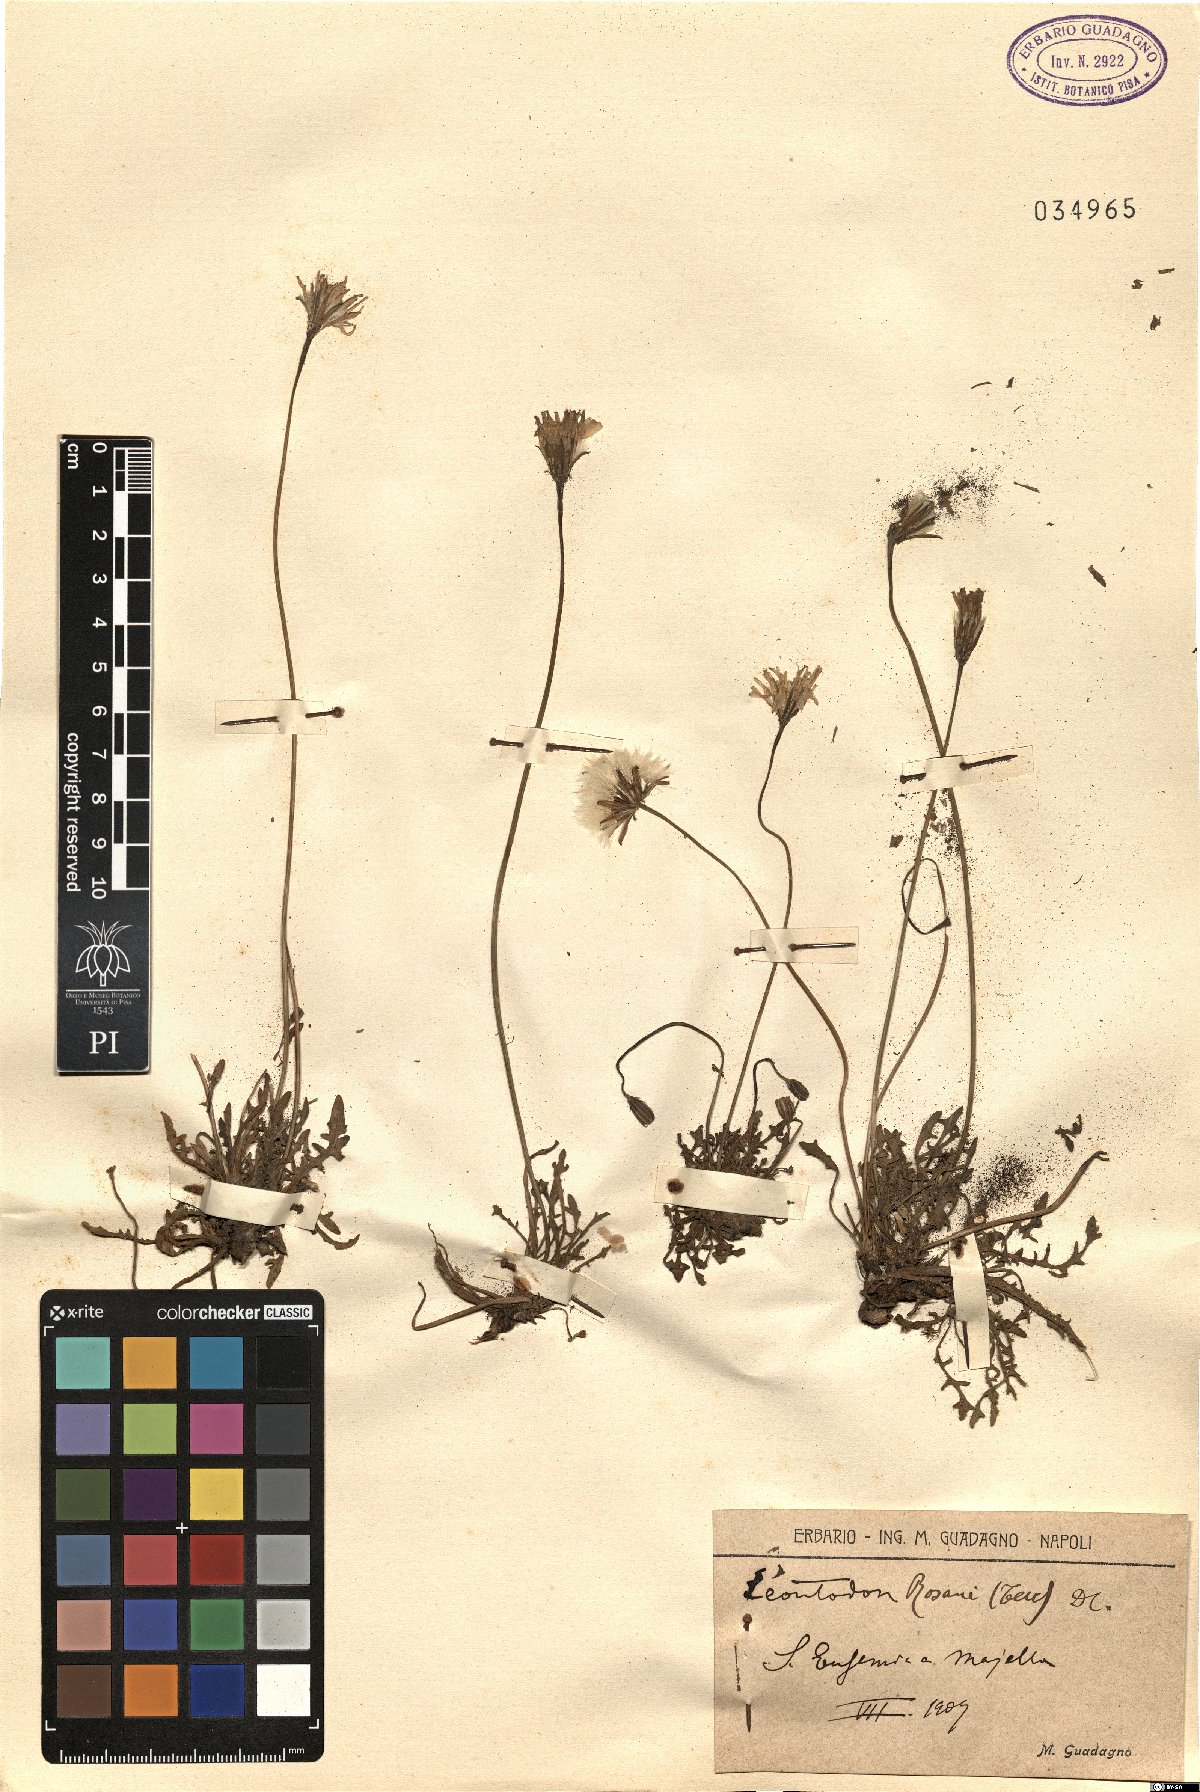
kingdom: Plantae
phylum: Tracheophyta
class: Magnoliopsida
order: Asterales
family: Asteraceae
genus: Leontodon
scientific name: Leontodon rosanoi
